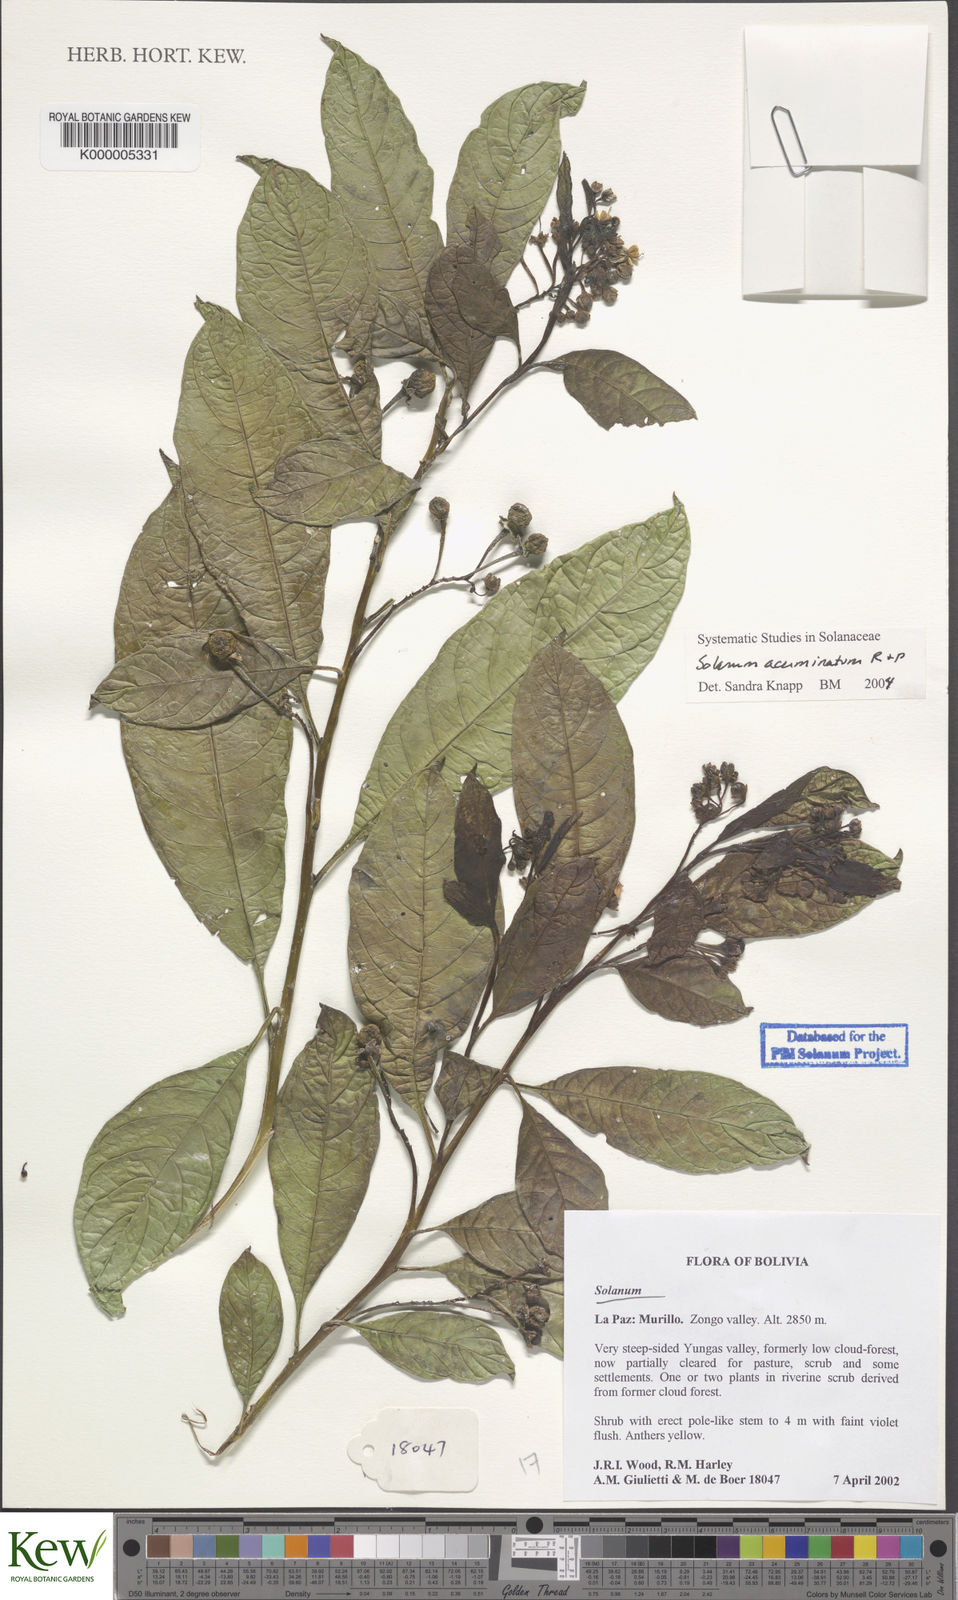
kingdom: Plantae
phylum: Tracheophyta
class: Magnoliopsida
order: Solanales
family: Solanaceae
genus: Solanum
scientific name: Solanum acuminatum
